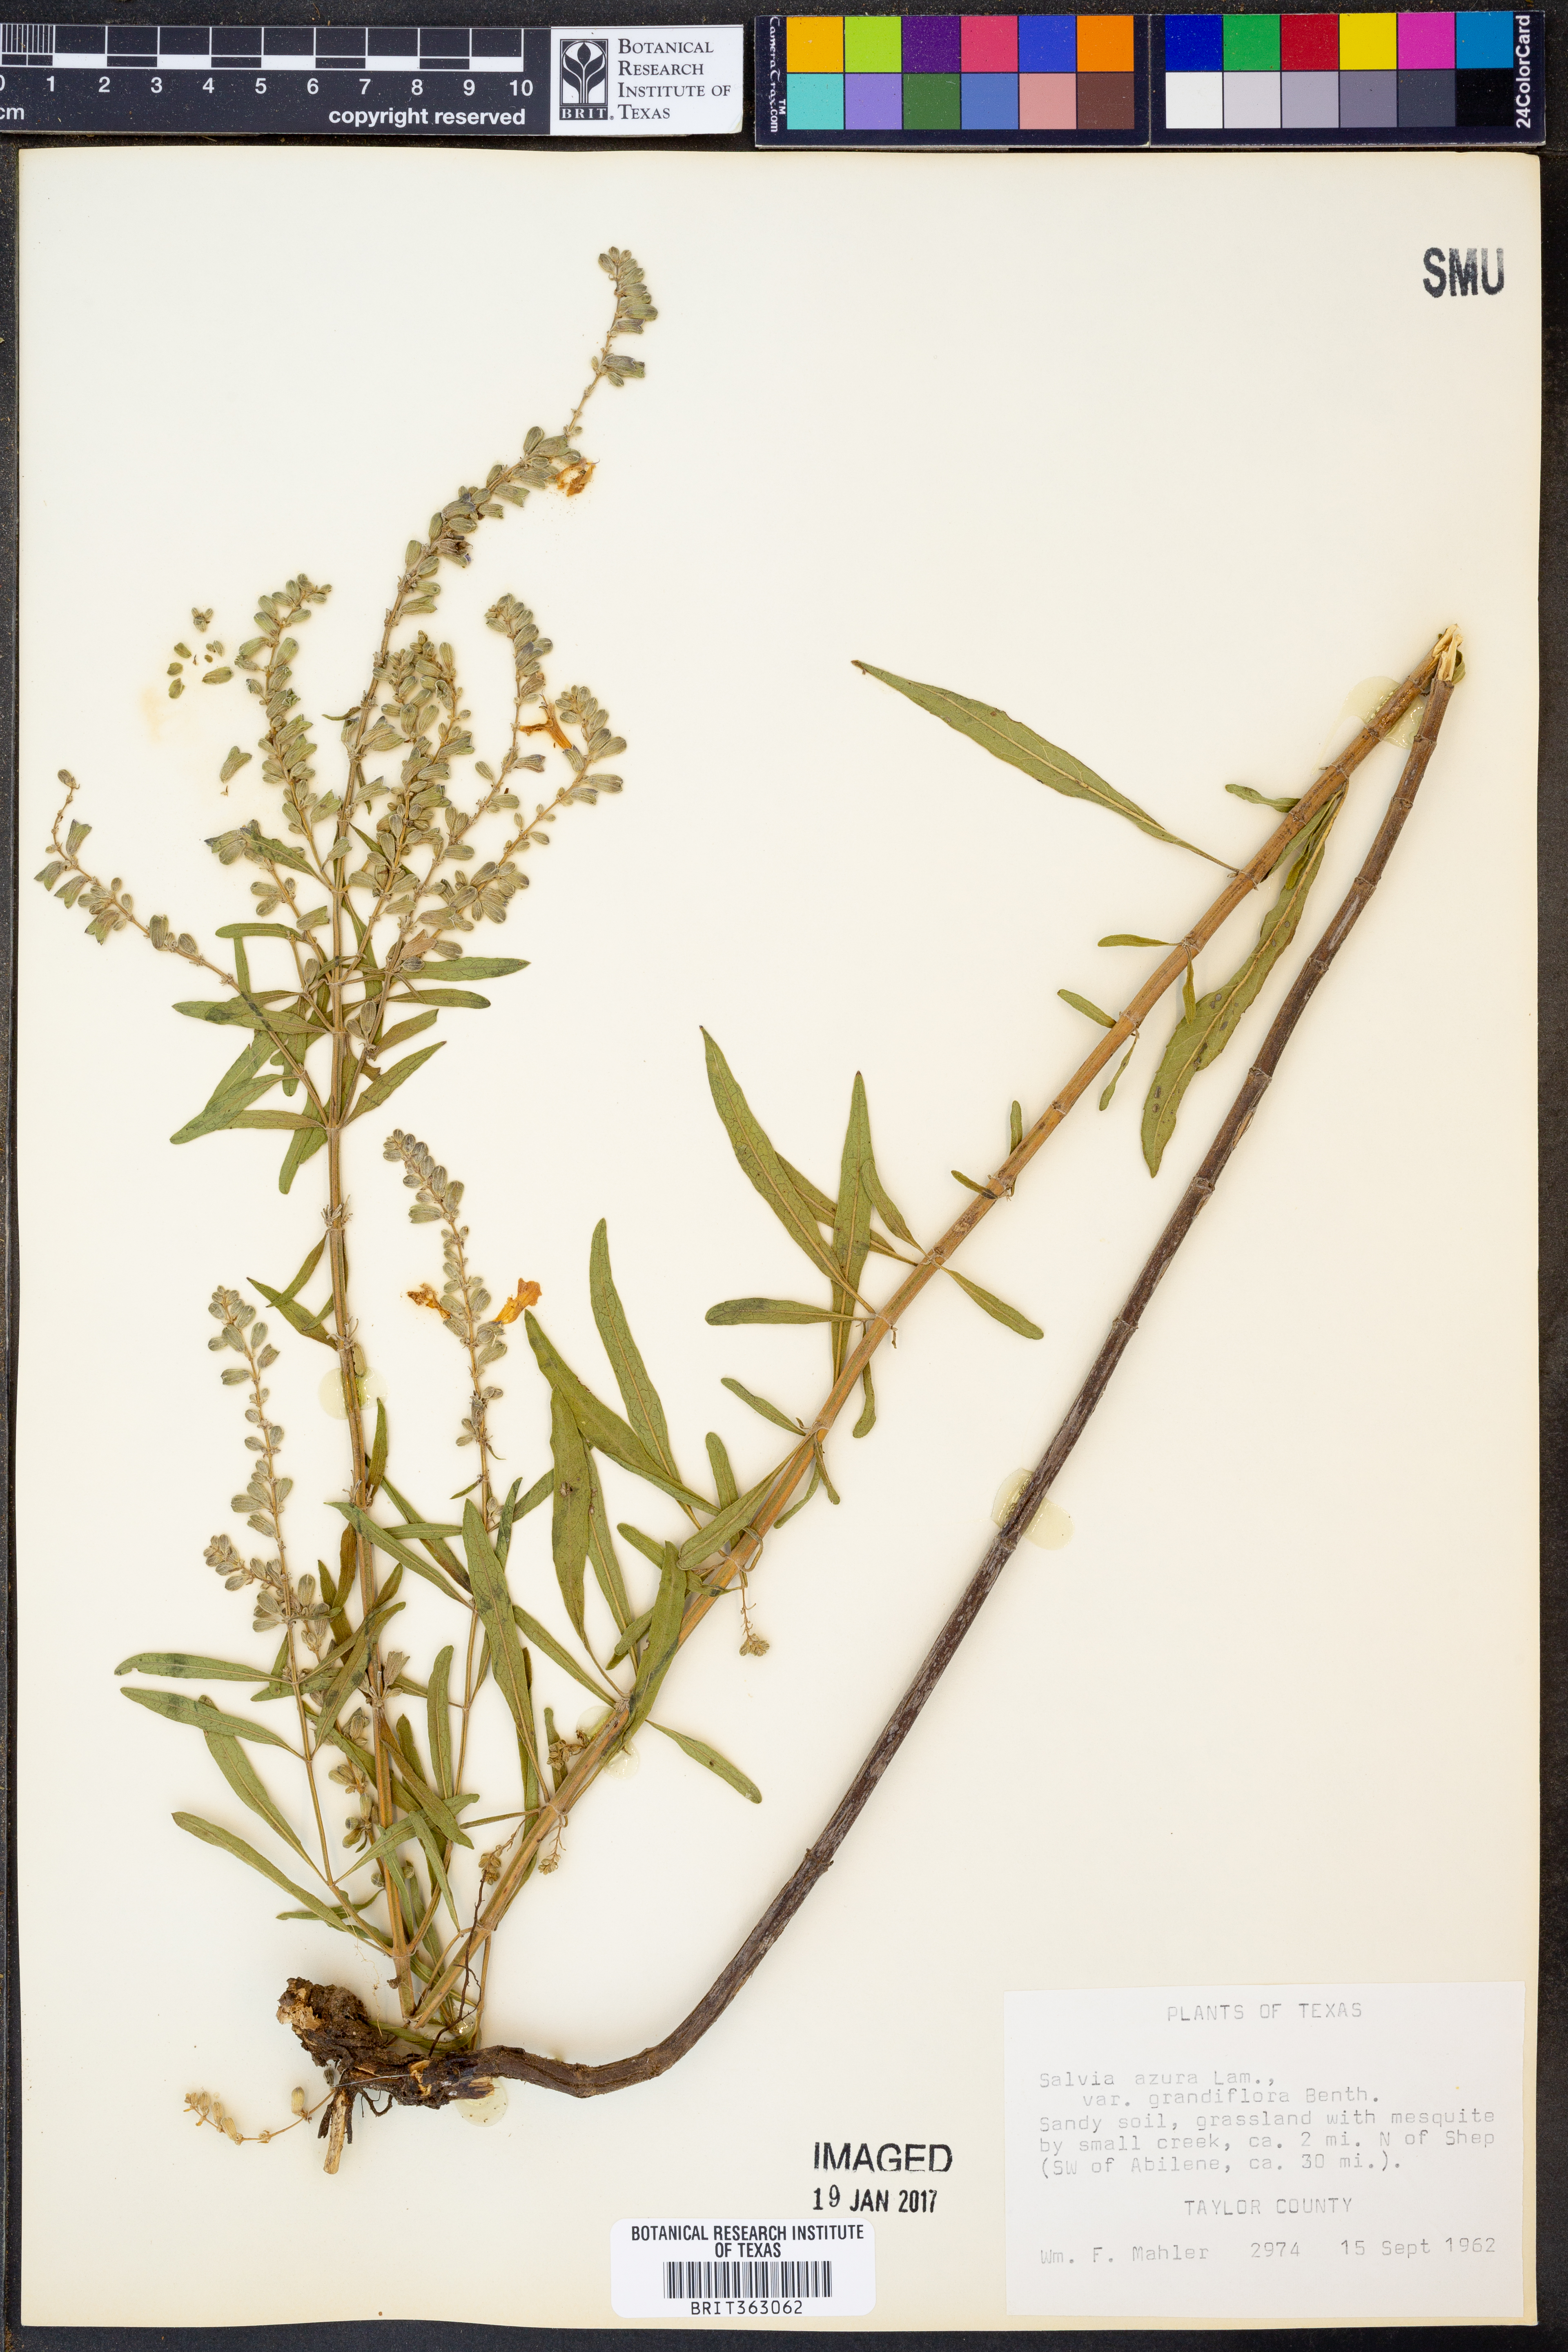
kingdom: Plantae
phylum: Tracheophyta
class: Magnoliopsida
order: Lamiales
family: Lamiaceae
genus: Salvia
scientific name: Salvia azurea
